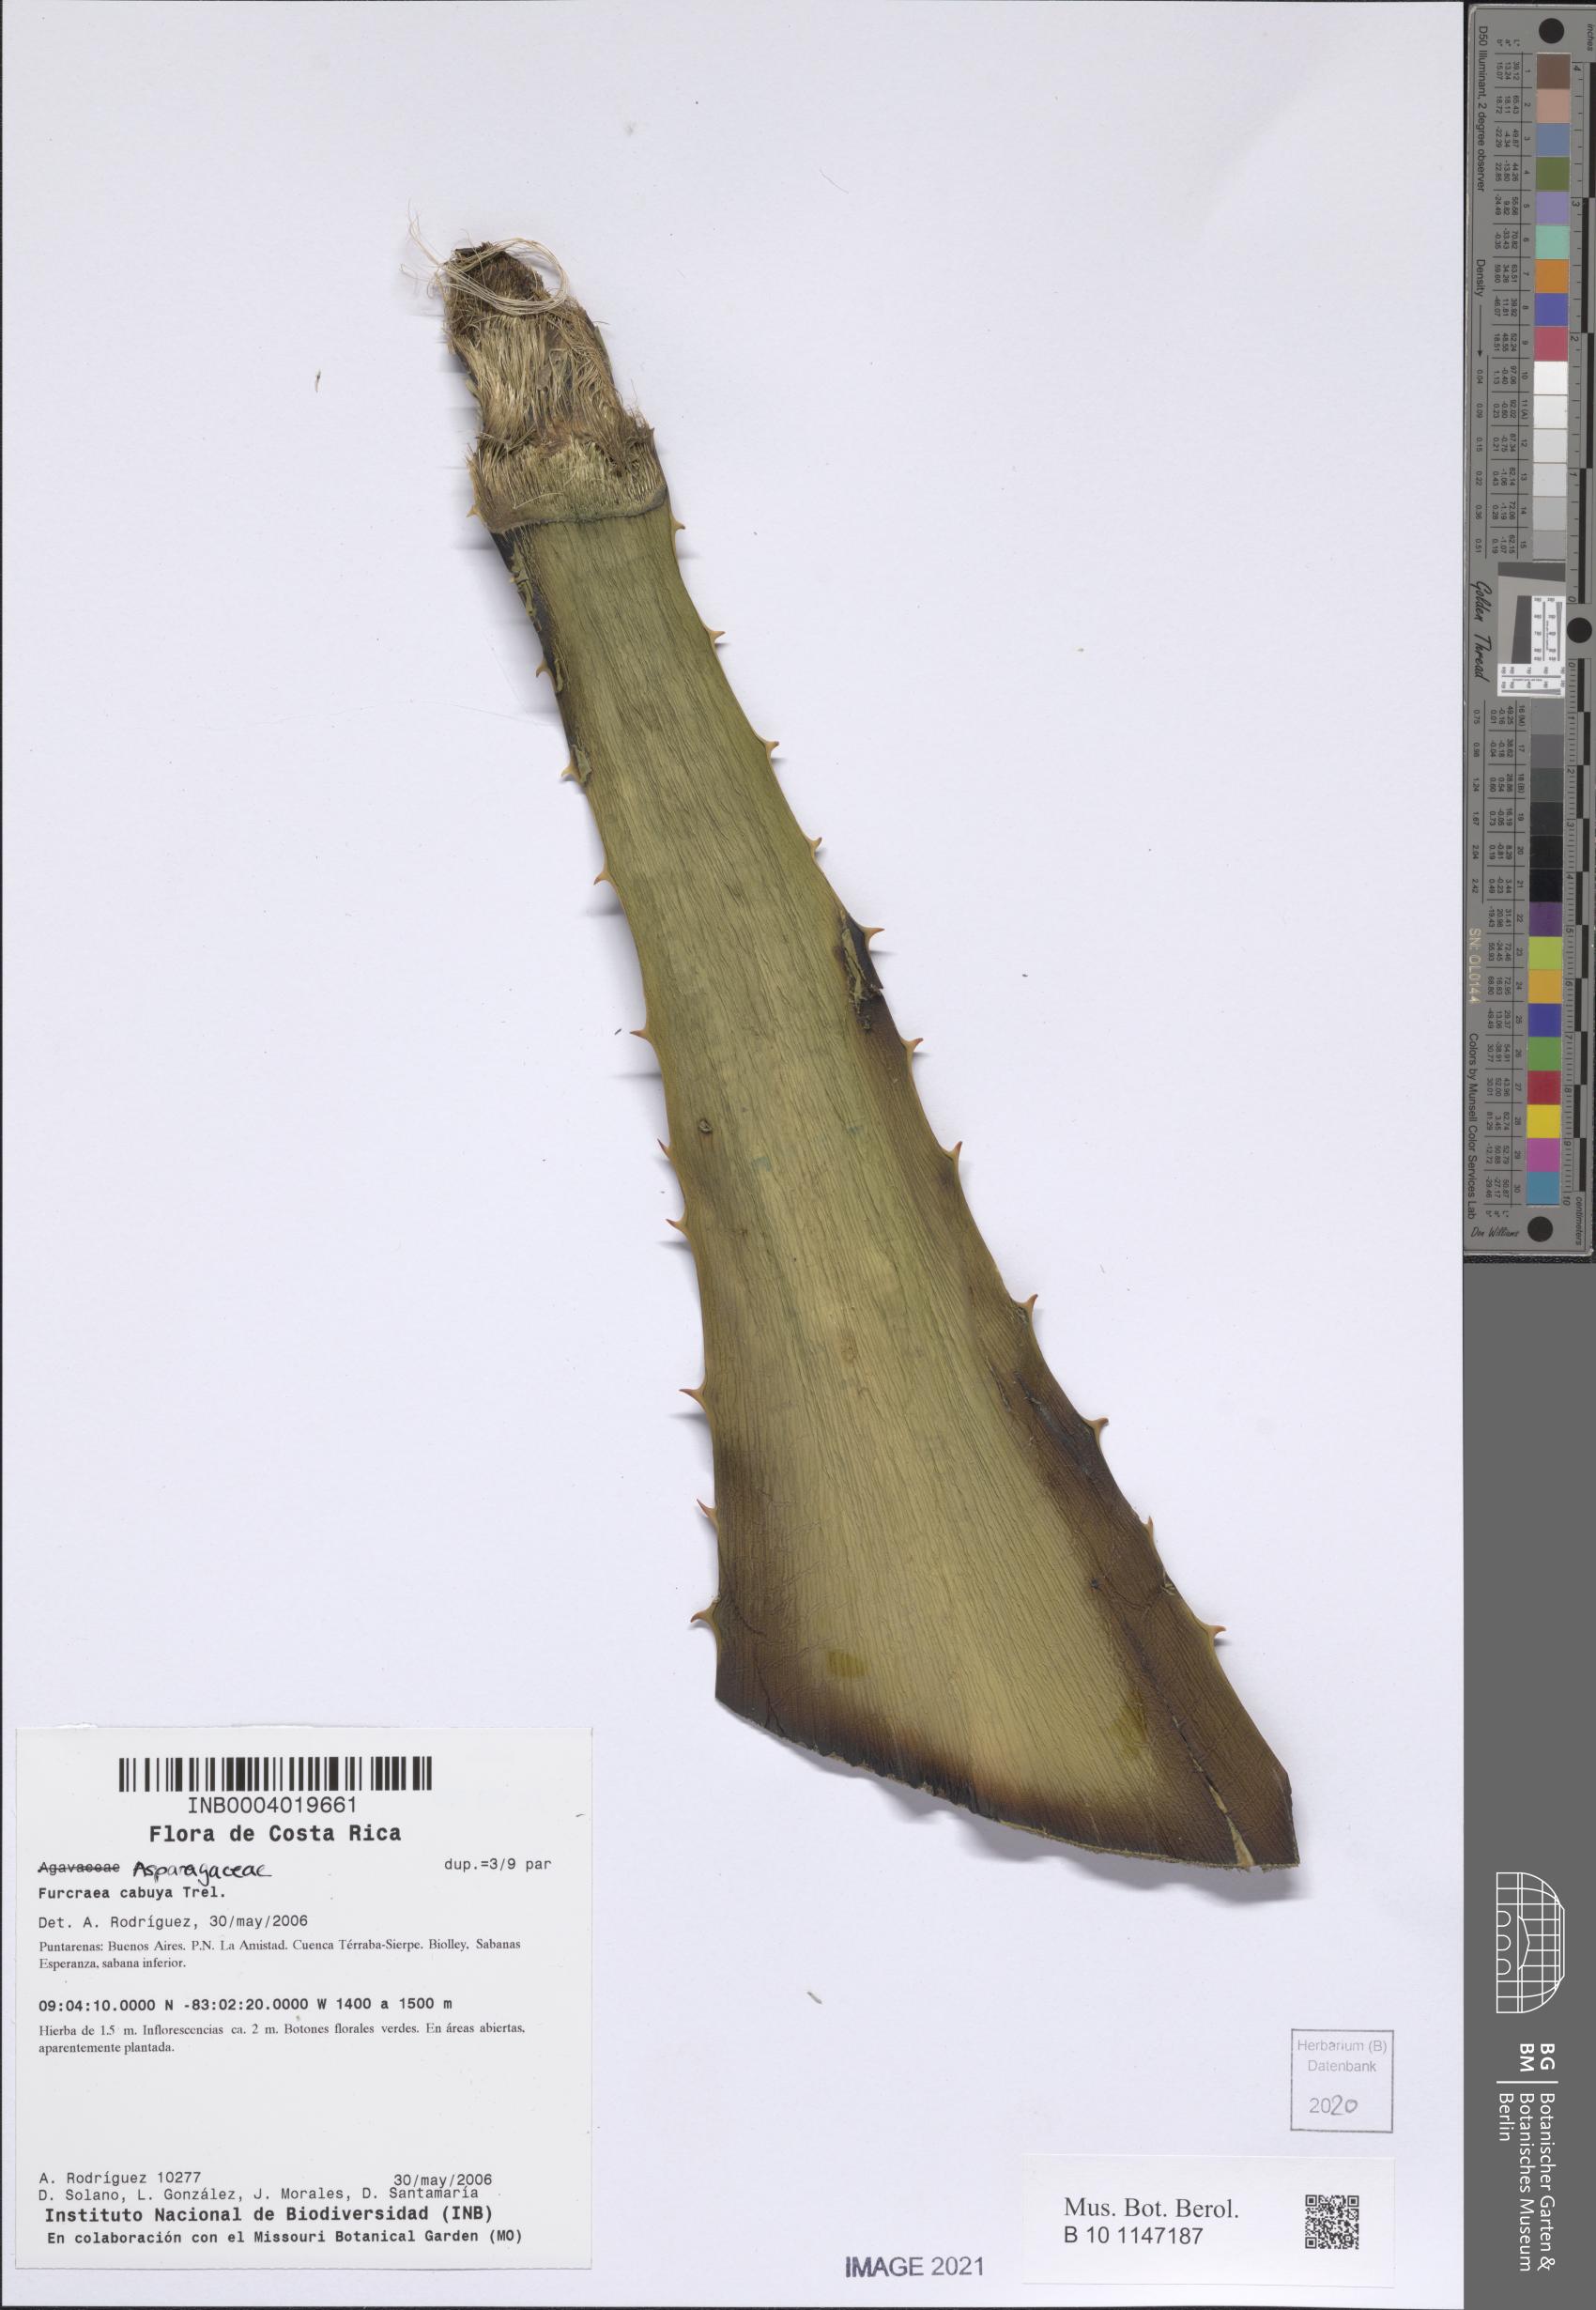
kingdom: Plantae
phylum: Tracheophyta
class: Liliopsida
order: Asparagales
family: Asparagaceae
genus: Furcraea
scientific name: Furcraea cabuya
